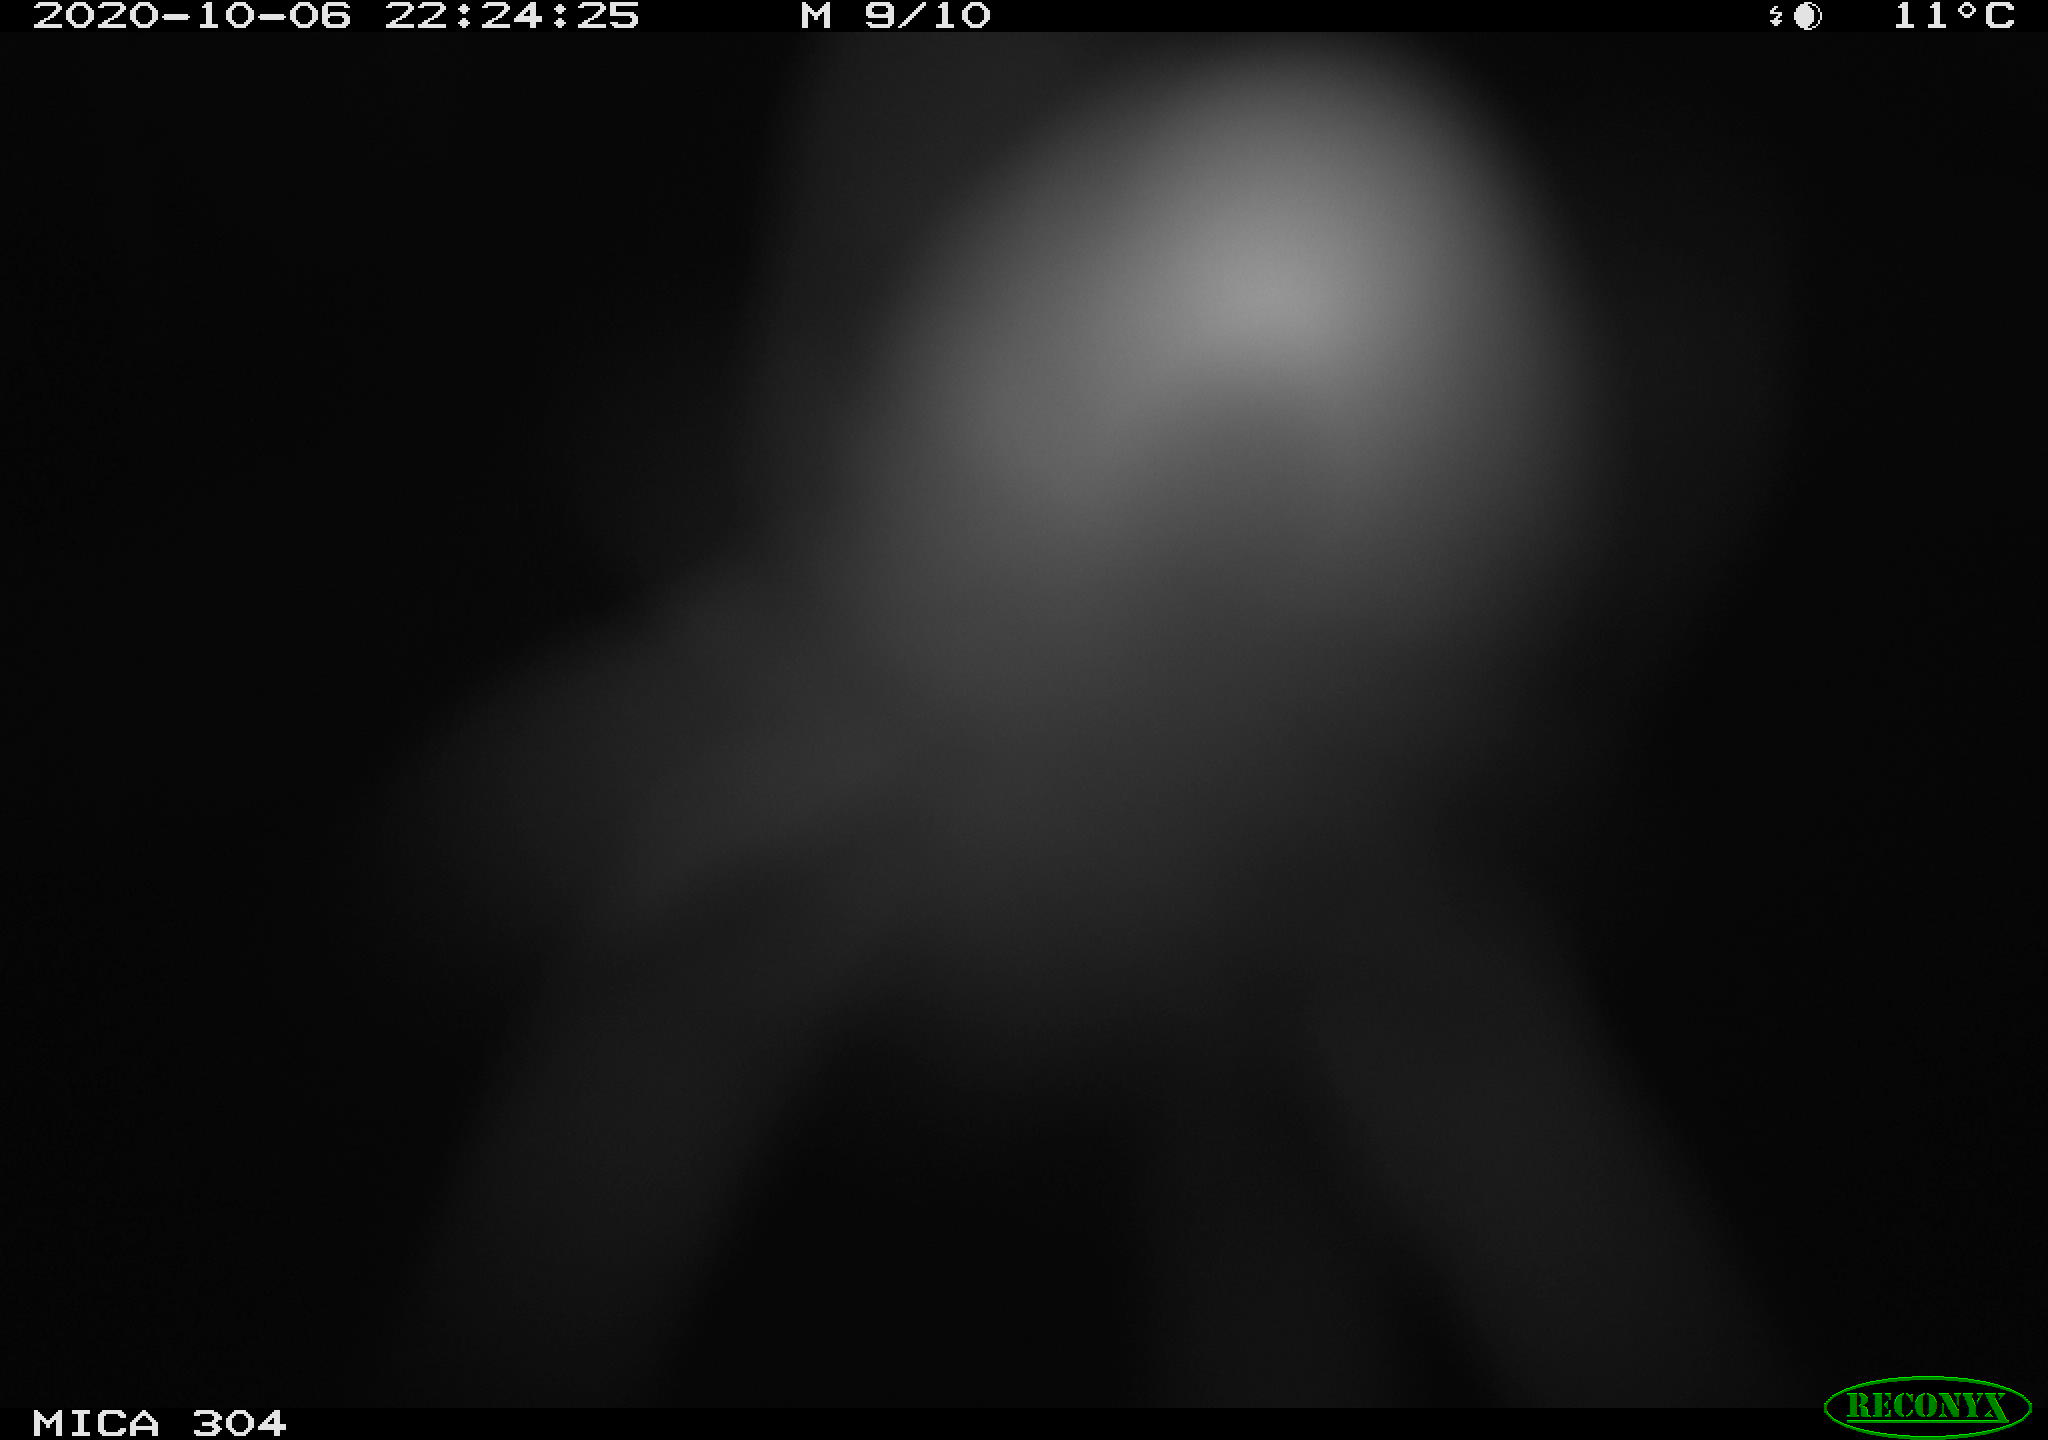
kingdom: Animalia
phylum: Chordata
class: Mammalia
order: Rodentia
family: Muridae
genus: Rattus
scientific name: Rattus norvegicus
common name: Brown rat
